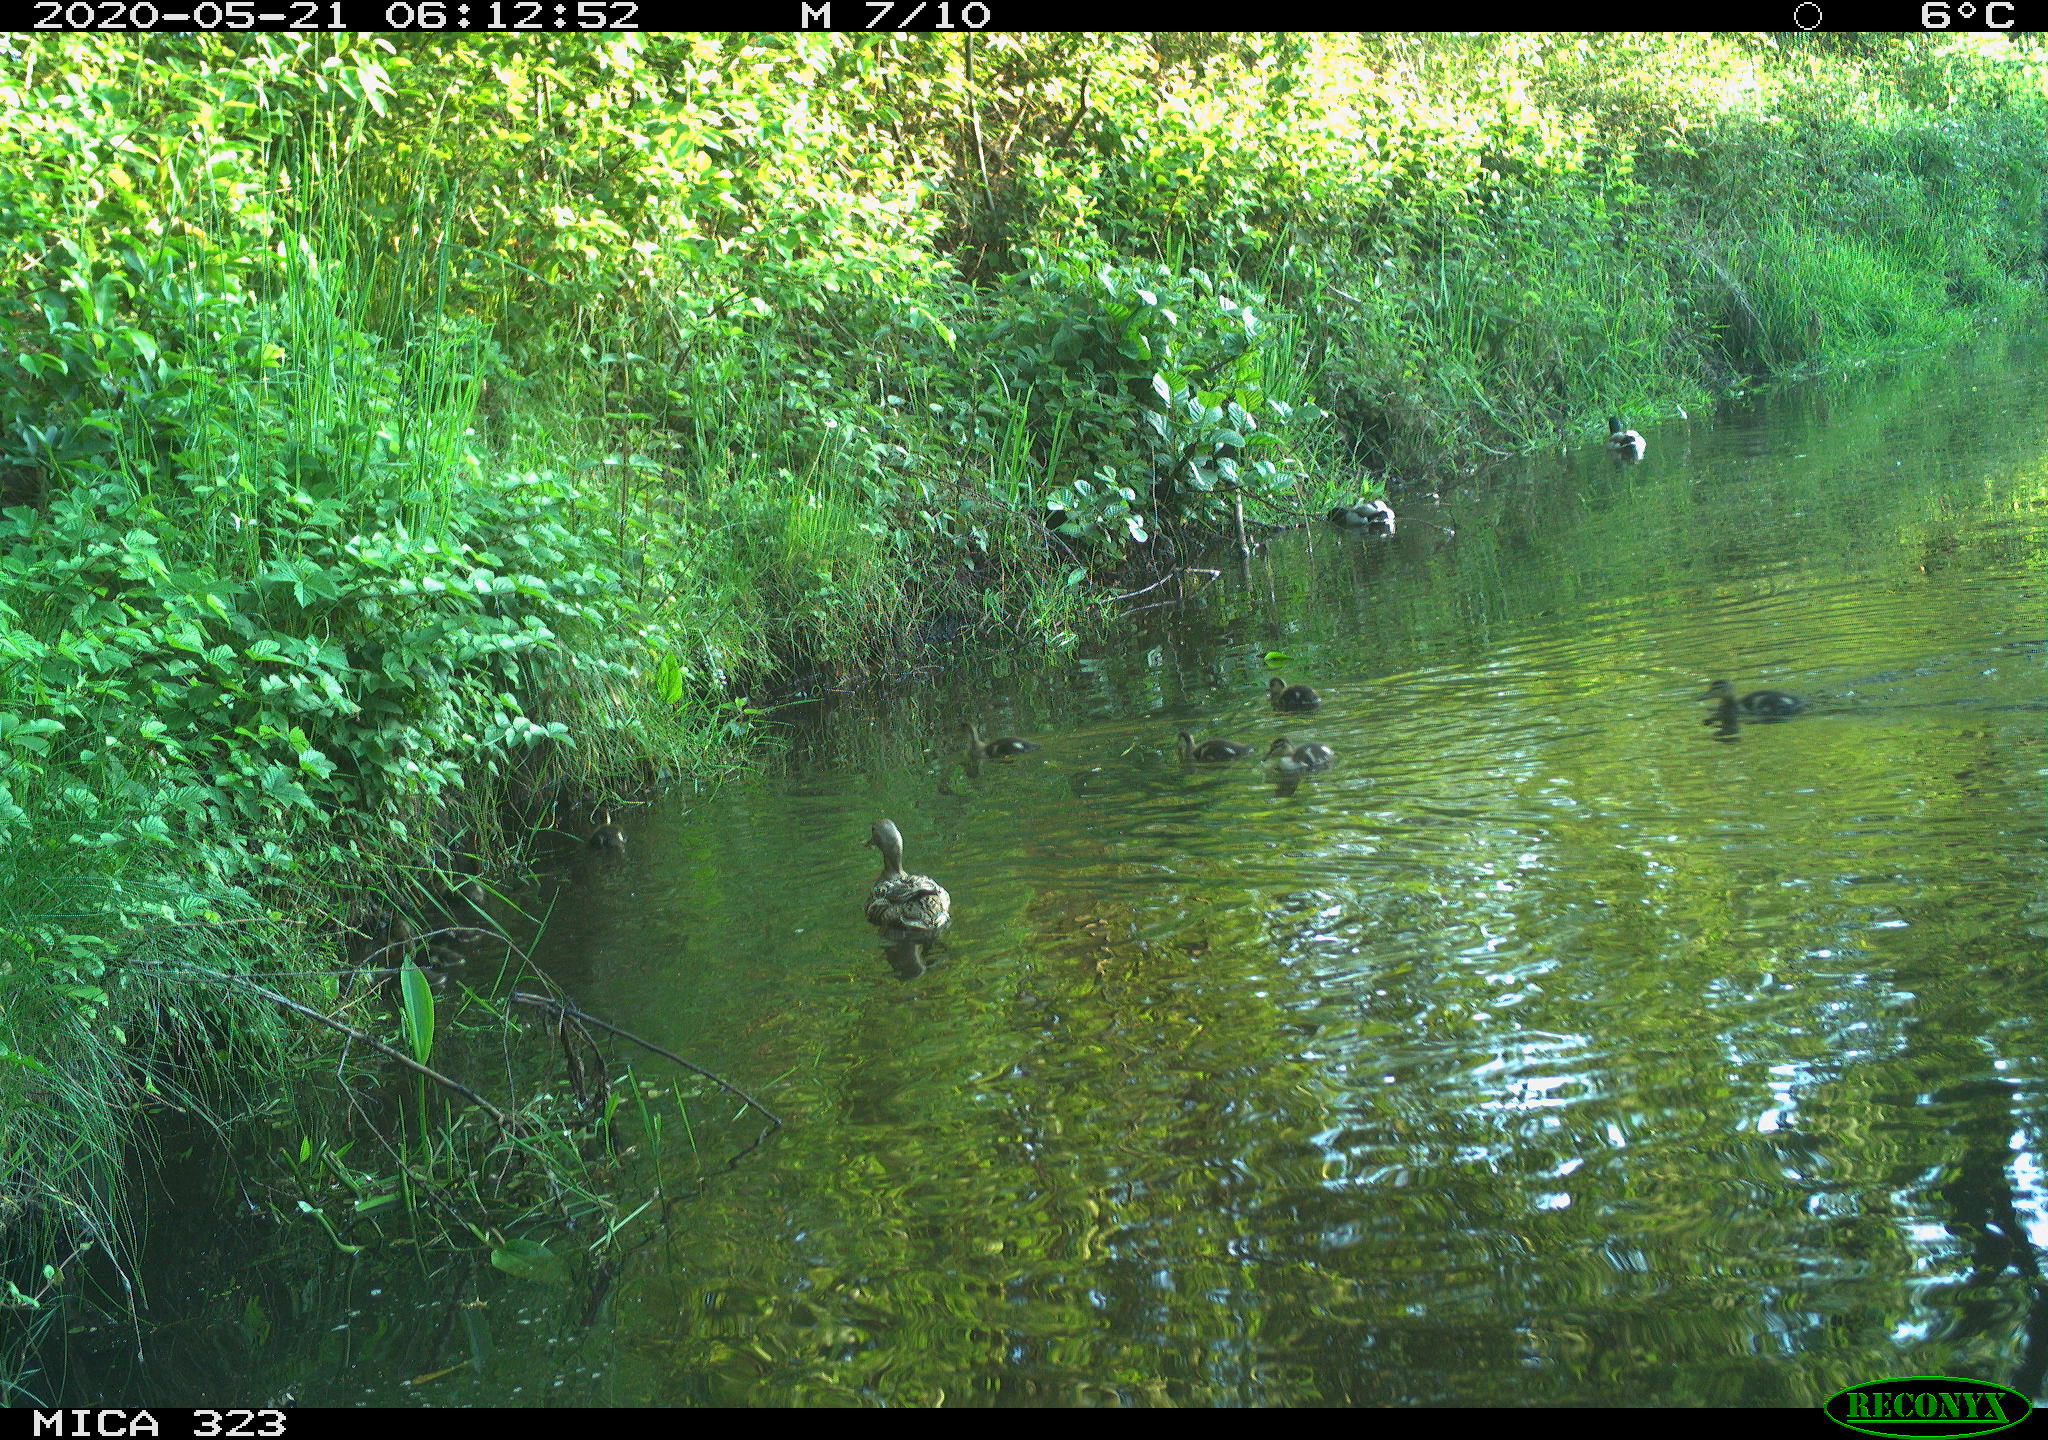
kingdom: Animalia
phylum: Chordata
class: Aves
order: Anseriformes
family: Anatidae
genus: Anas
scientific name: Anas platyrhynchos
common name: Mallard
